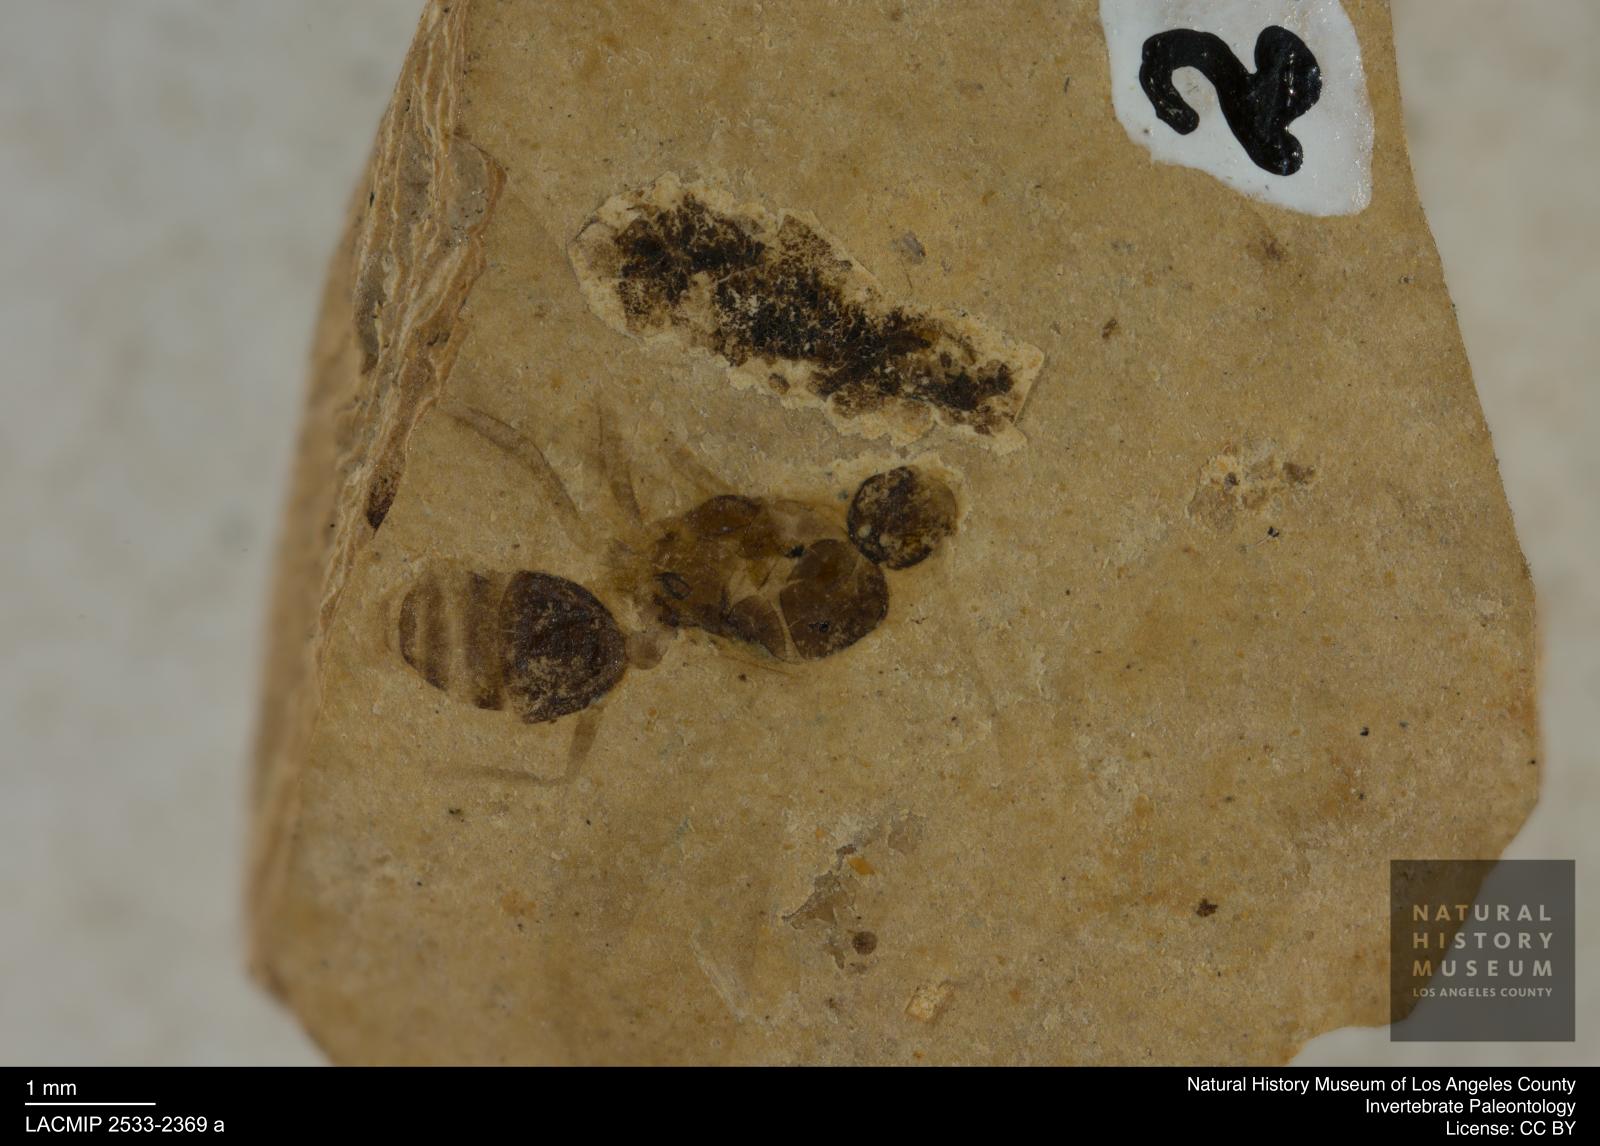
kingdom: Animalia
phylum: Arthropoda
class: Insecta
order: Hymenoptera
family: Formicidae
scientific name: Formicidae
